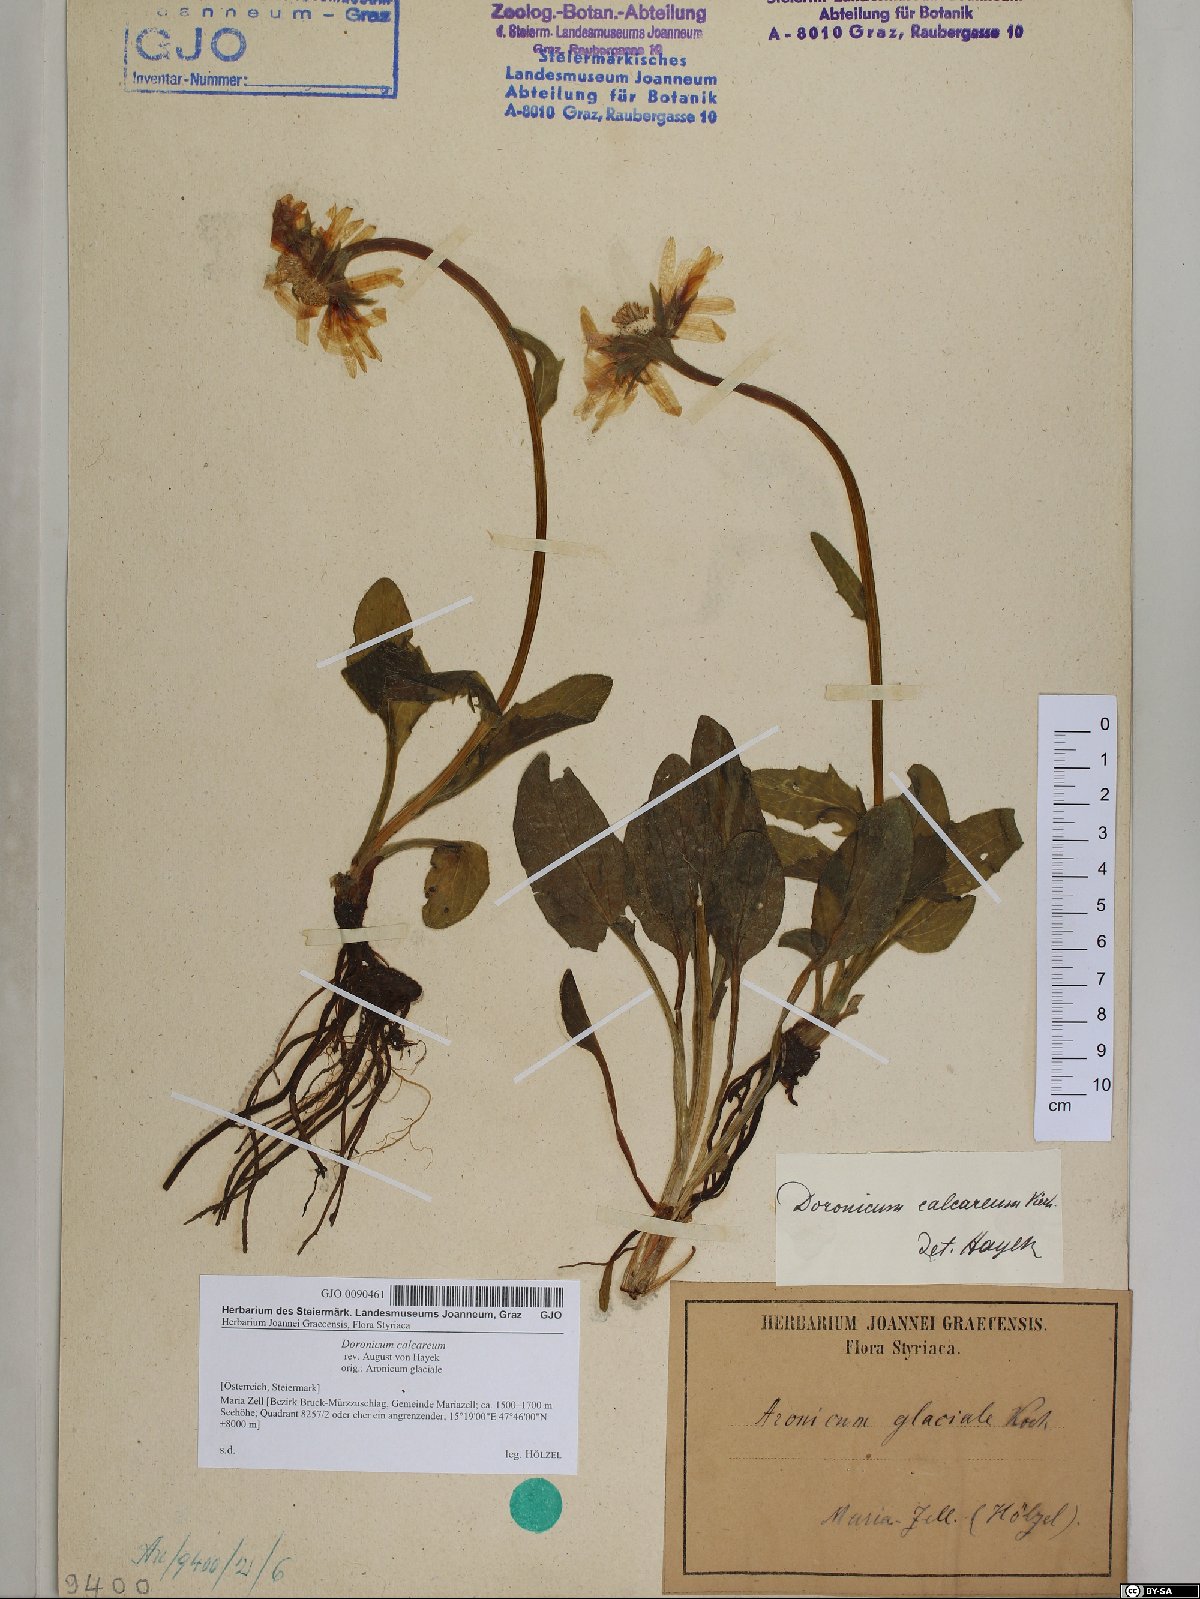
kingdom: Plantae
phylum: Tracheophyta
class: Magnoliopsida
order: Asterales
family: Asteraceae
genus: Doronicum
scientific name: Doronicum glaciale
